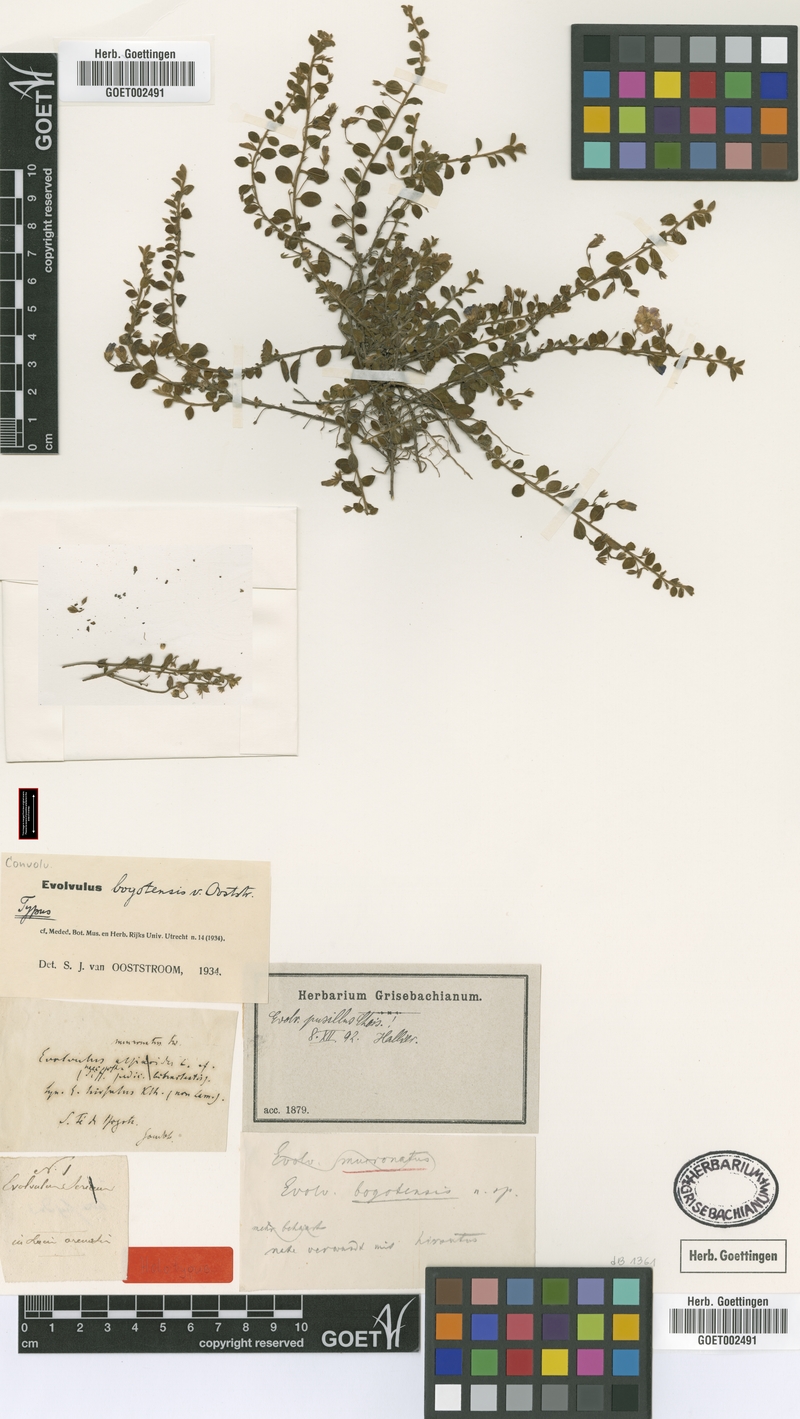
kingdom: Plantae
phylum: Tracheophyta
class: Magnoliopsida
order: Solanales
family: Convolvulaceae
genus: Evolvulus
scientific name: Evolvulus bogotensis
